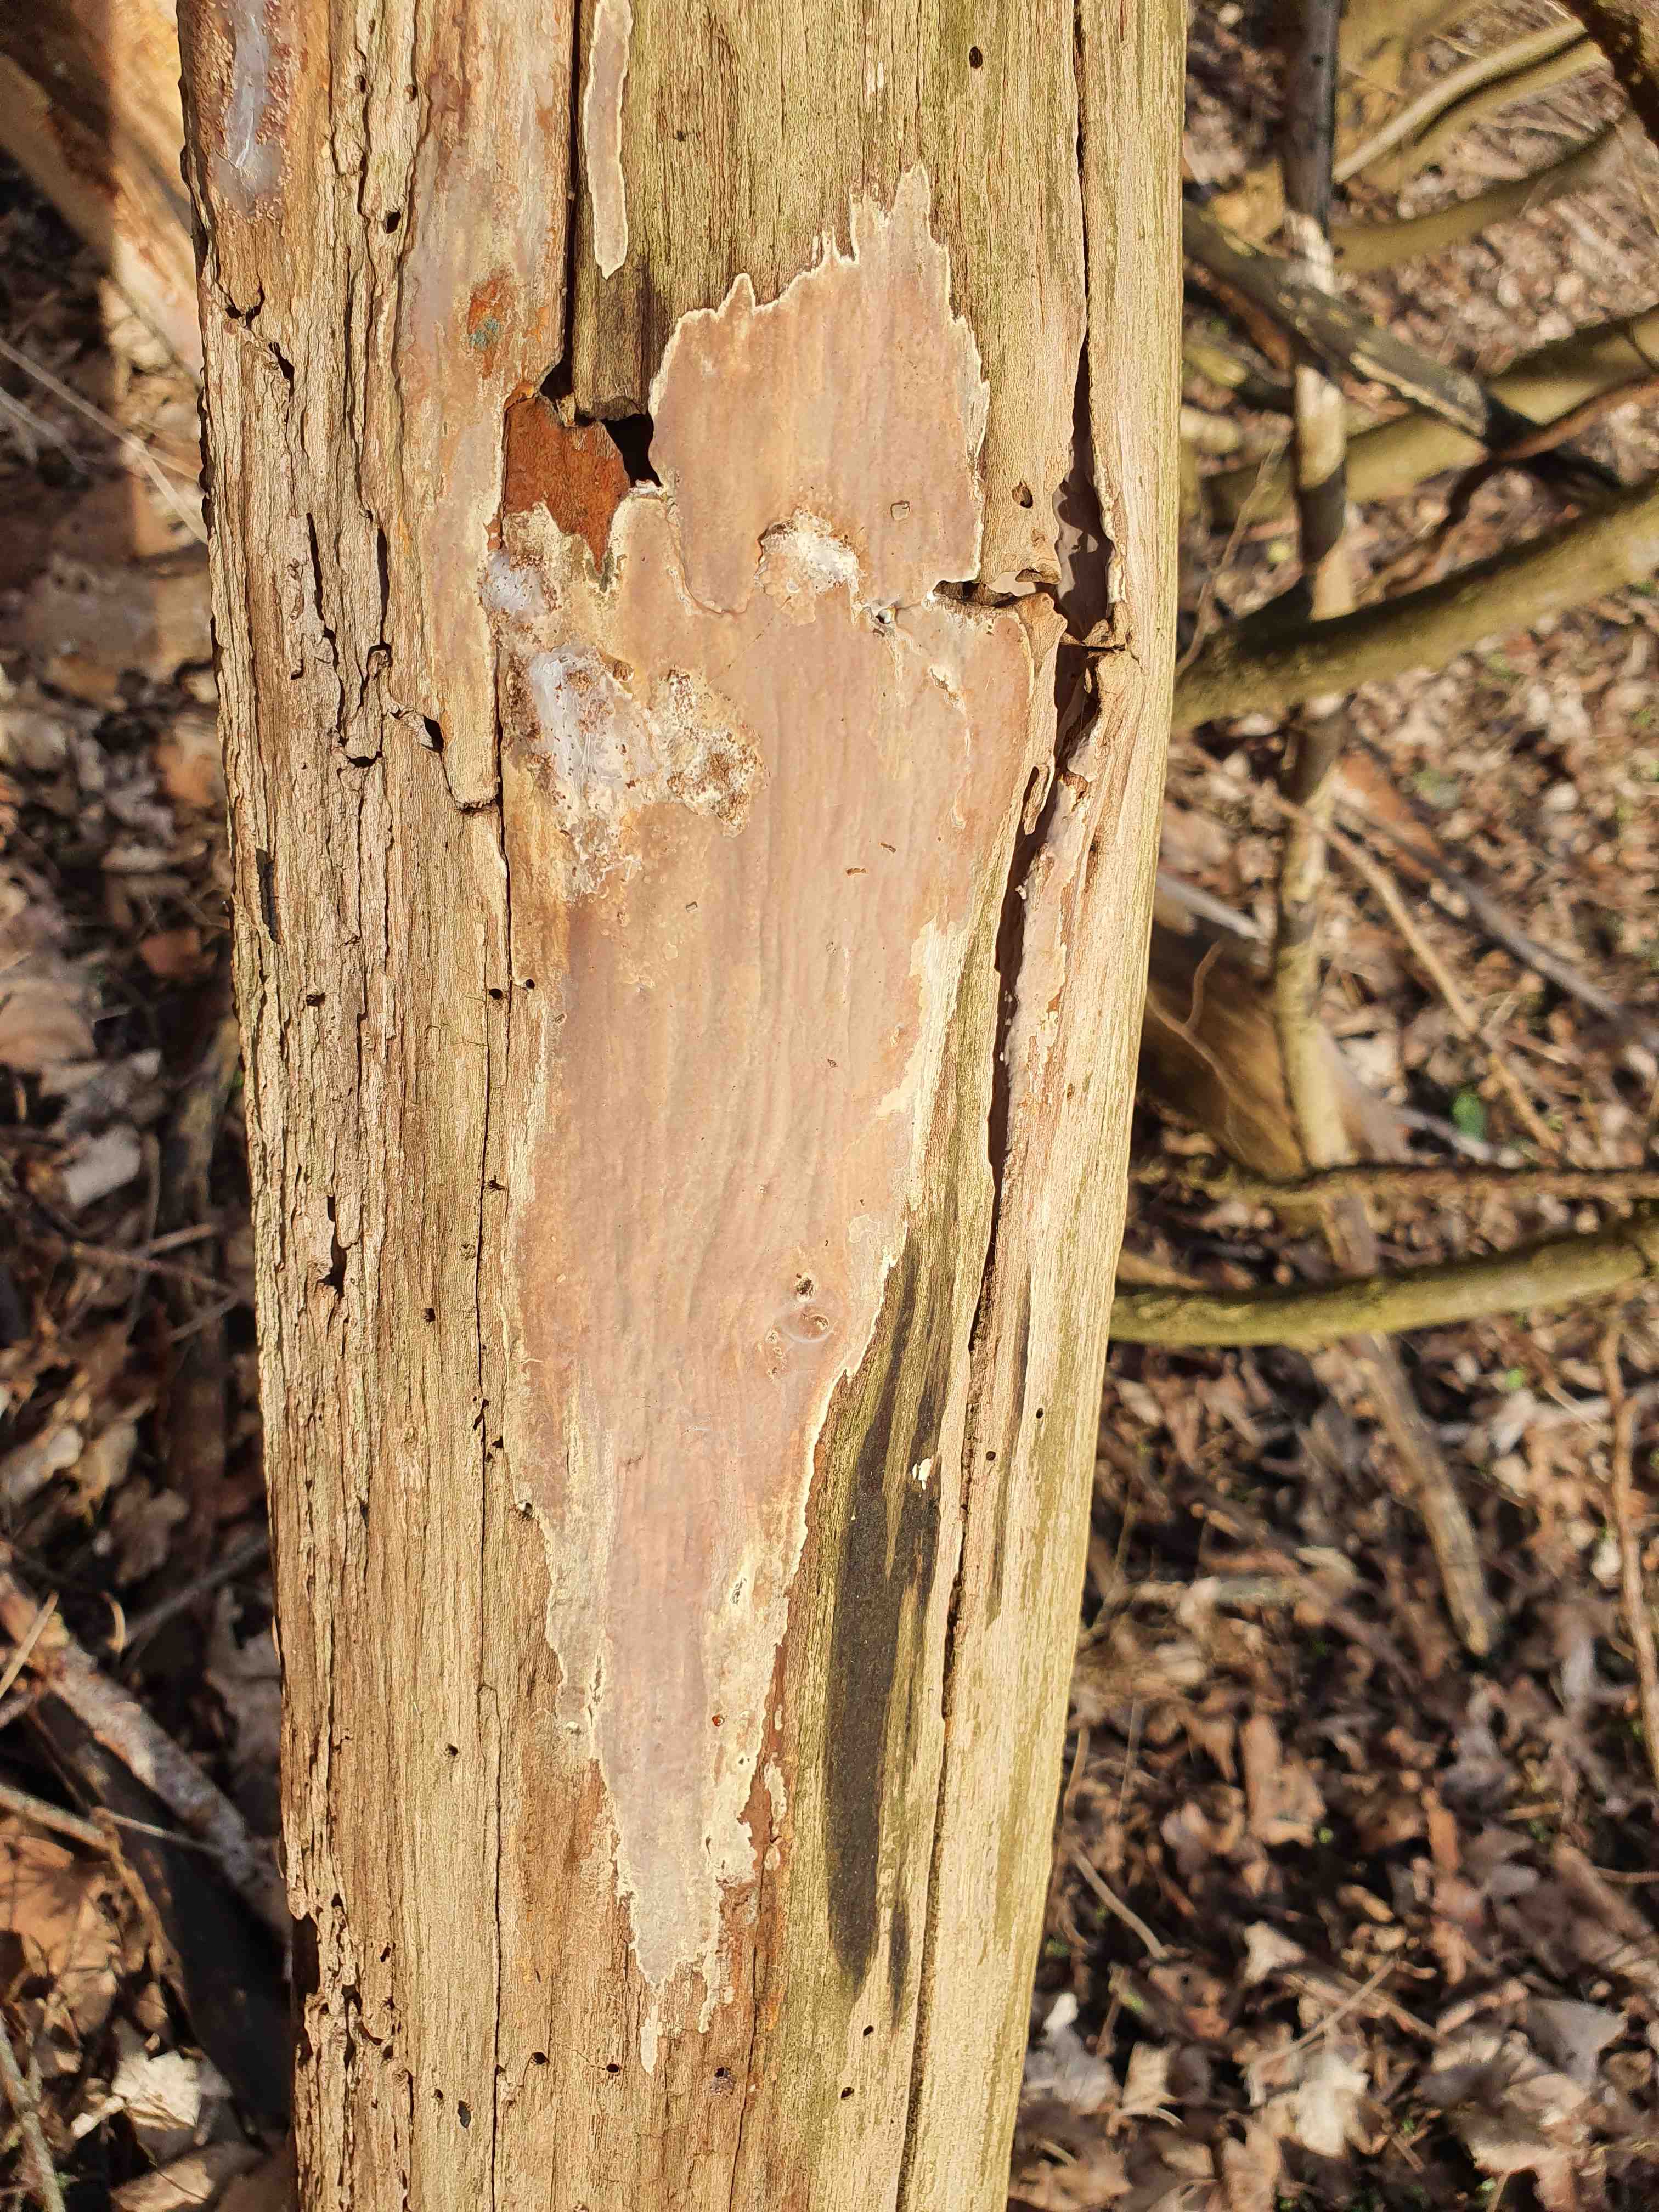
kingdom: Fungi
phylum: Basidiomycota
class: Agaricomycetes
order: Russulales
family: Peniophoraceae
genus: Scytinostroma
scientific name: Scytinostroma hemidichophyticum
